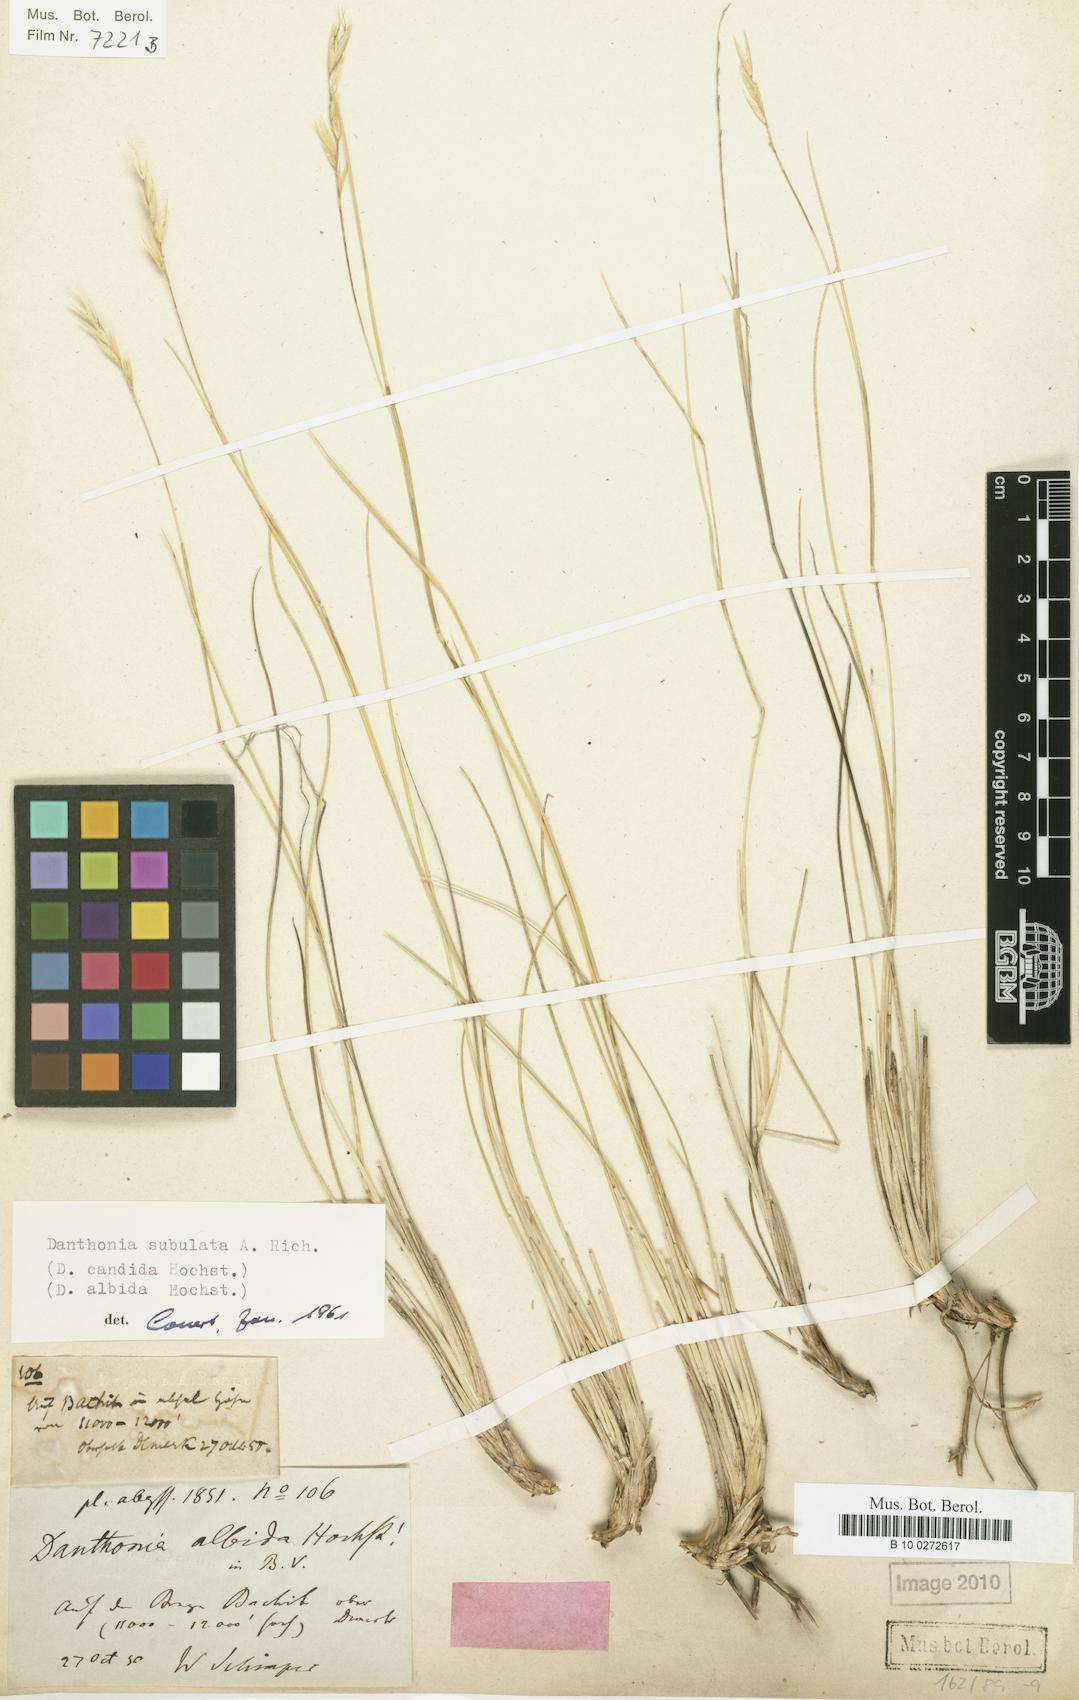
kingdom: Plantae
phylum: Tracheophyta
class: Liliopsida
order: Poales
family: Poaceae
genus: Tenaxia
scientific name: Tenaxia subulata
